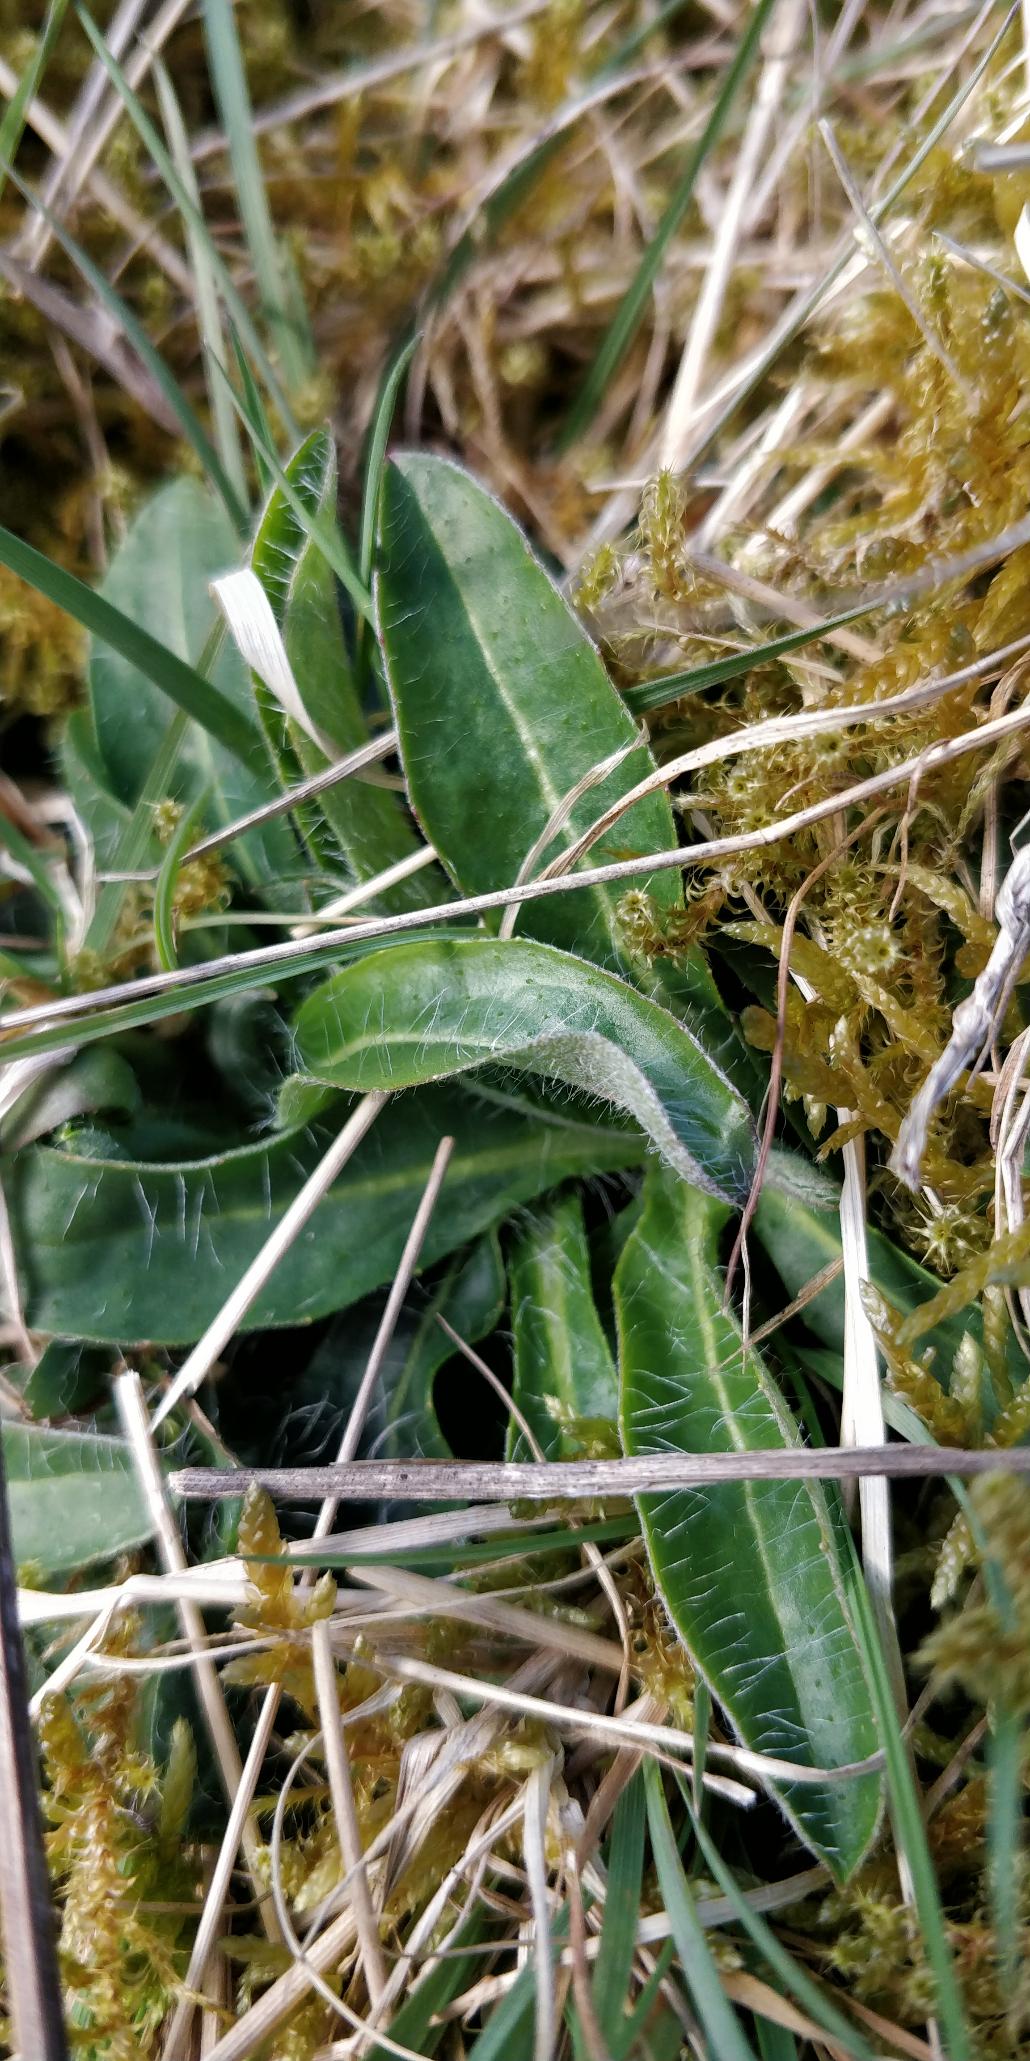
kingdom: Plantae
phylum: Tracheophyta
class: Magnoliopsida
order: Asterales
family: Asteraceae
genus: Pilosella
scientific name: Pilosella officinarum
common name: Håret høgeurt
